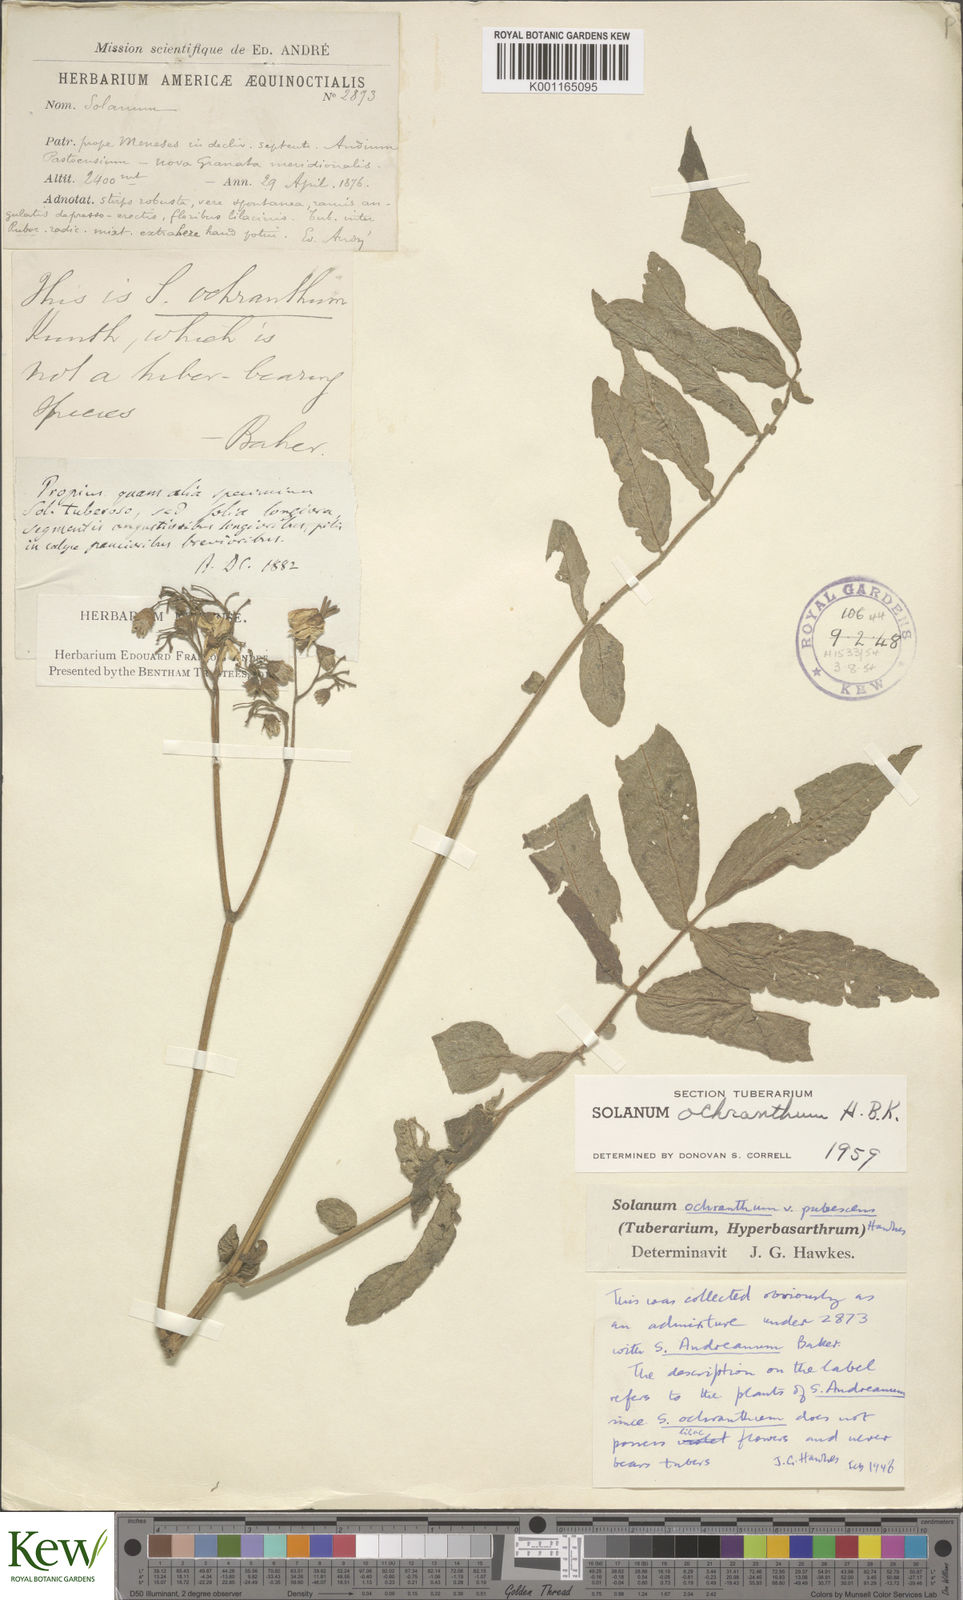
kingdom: Plantae
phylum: Tracheophyta
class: Magnoliopsida
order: Solanales
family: Solanaceae
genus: Solanum
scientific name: Solanum ochranthum
